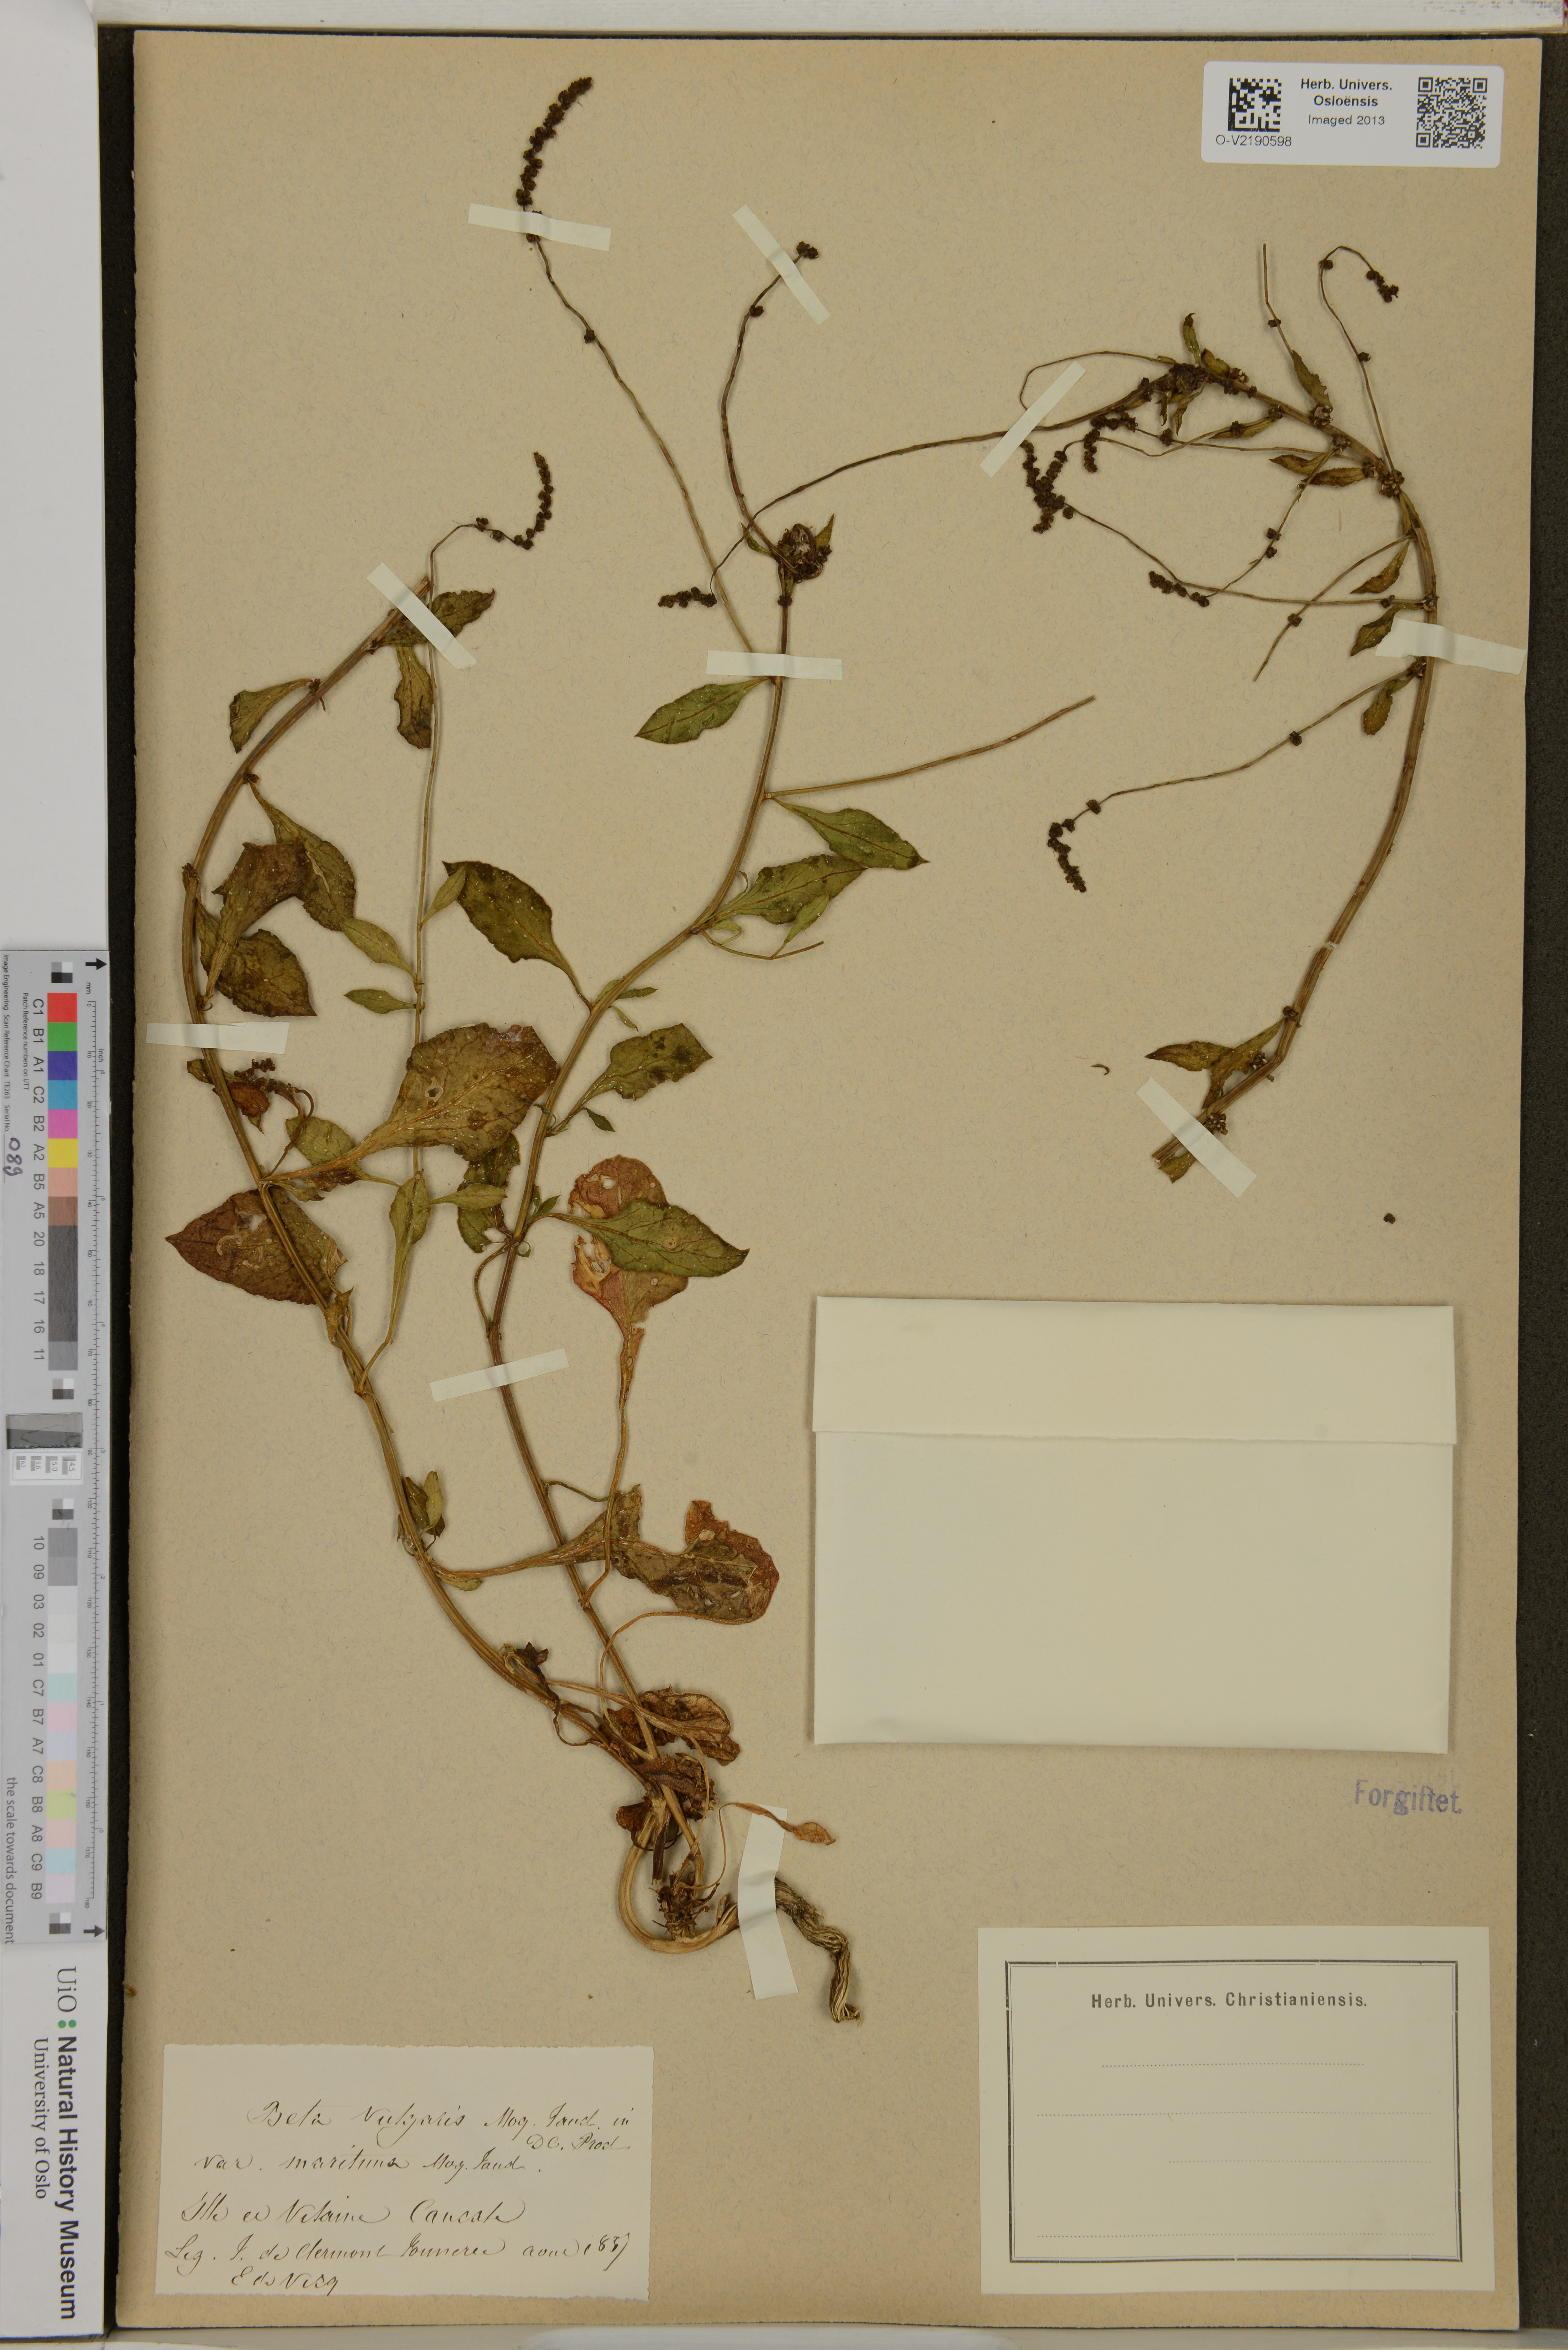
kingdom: Plantae
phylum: Tracheophyta
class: Magnoliopsida
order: Caryophyllales
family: Amaranthaceae
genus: Beta
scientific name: Beta vulgaris
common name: Beet
